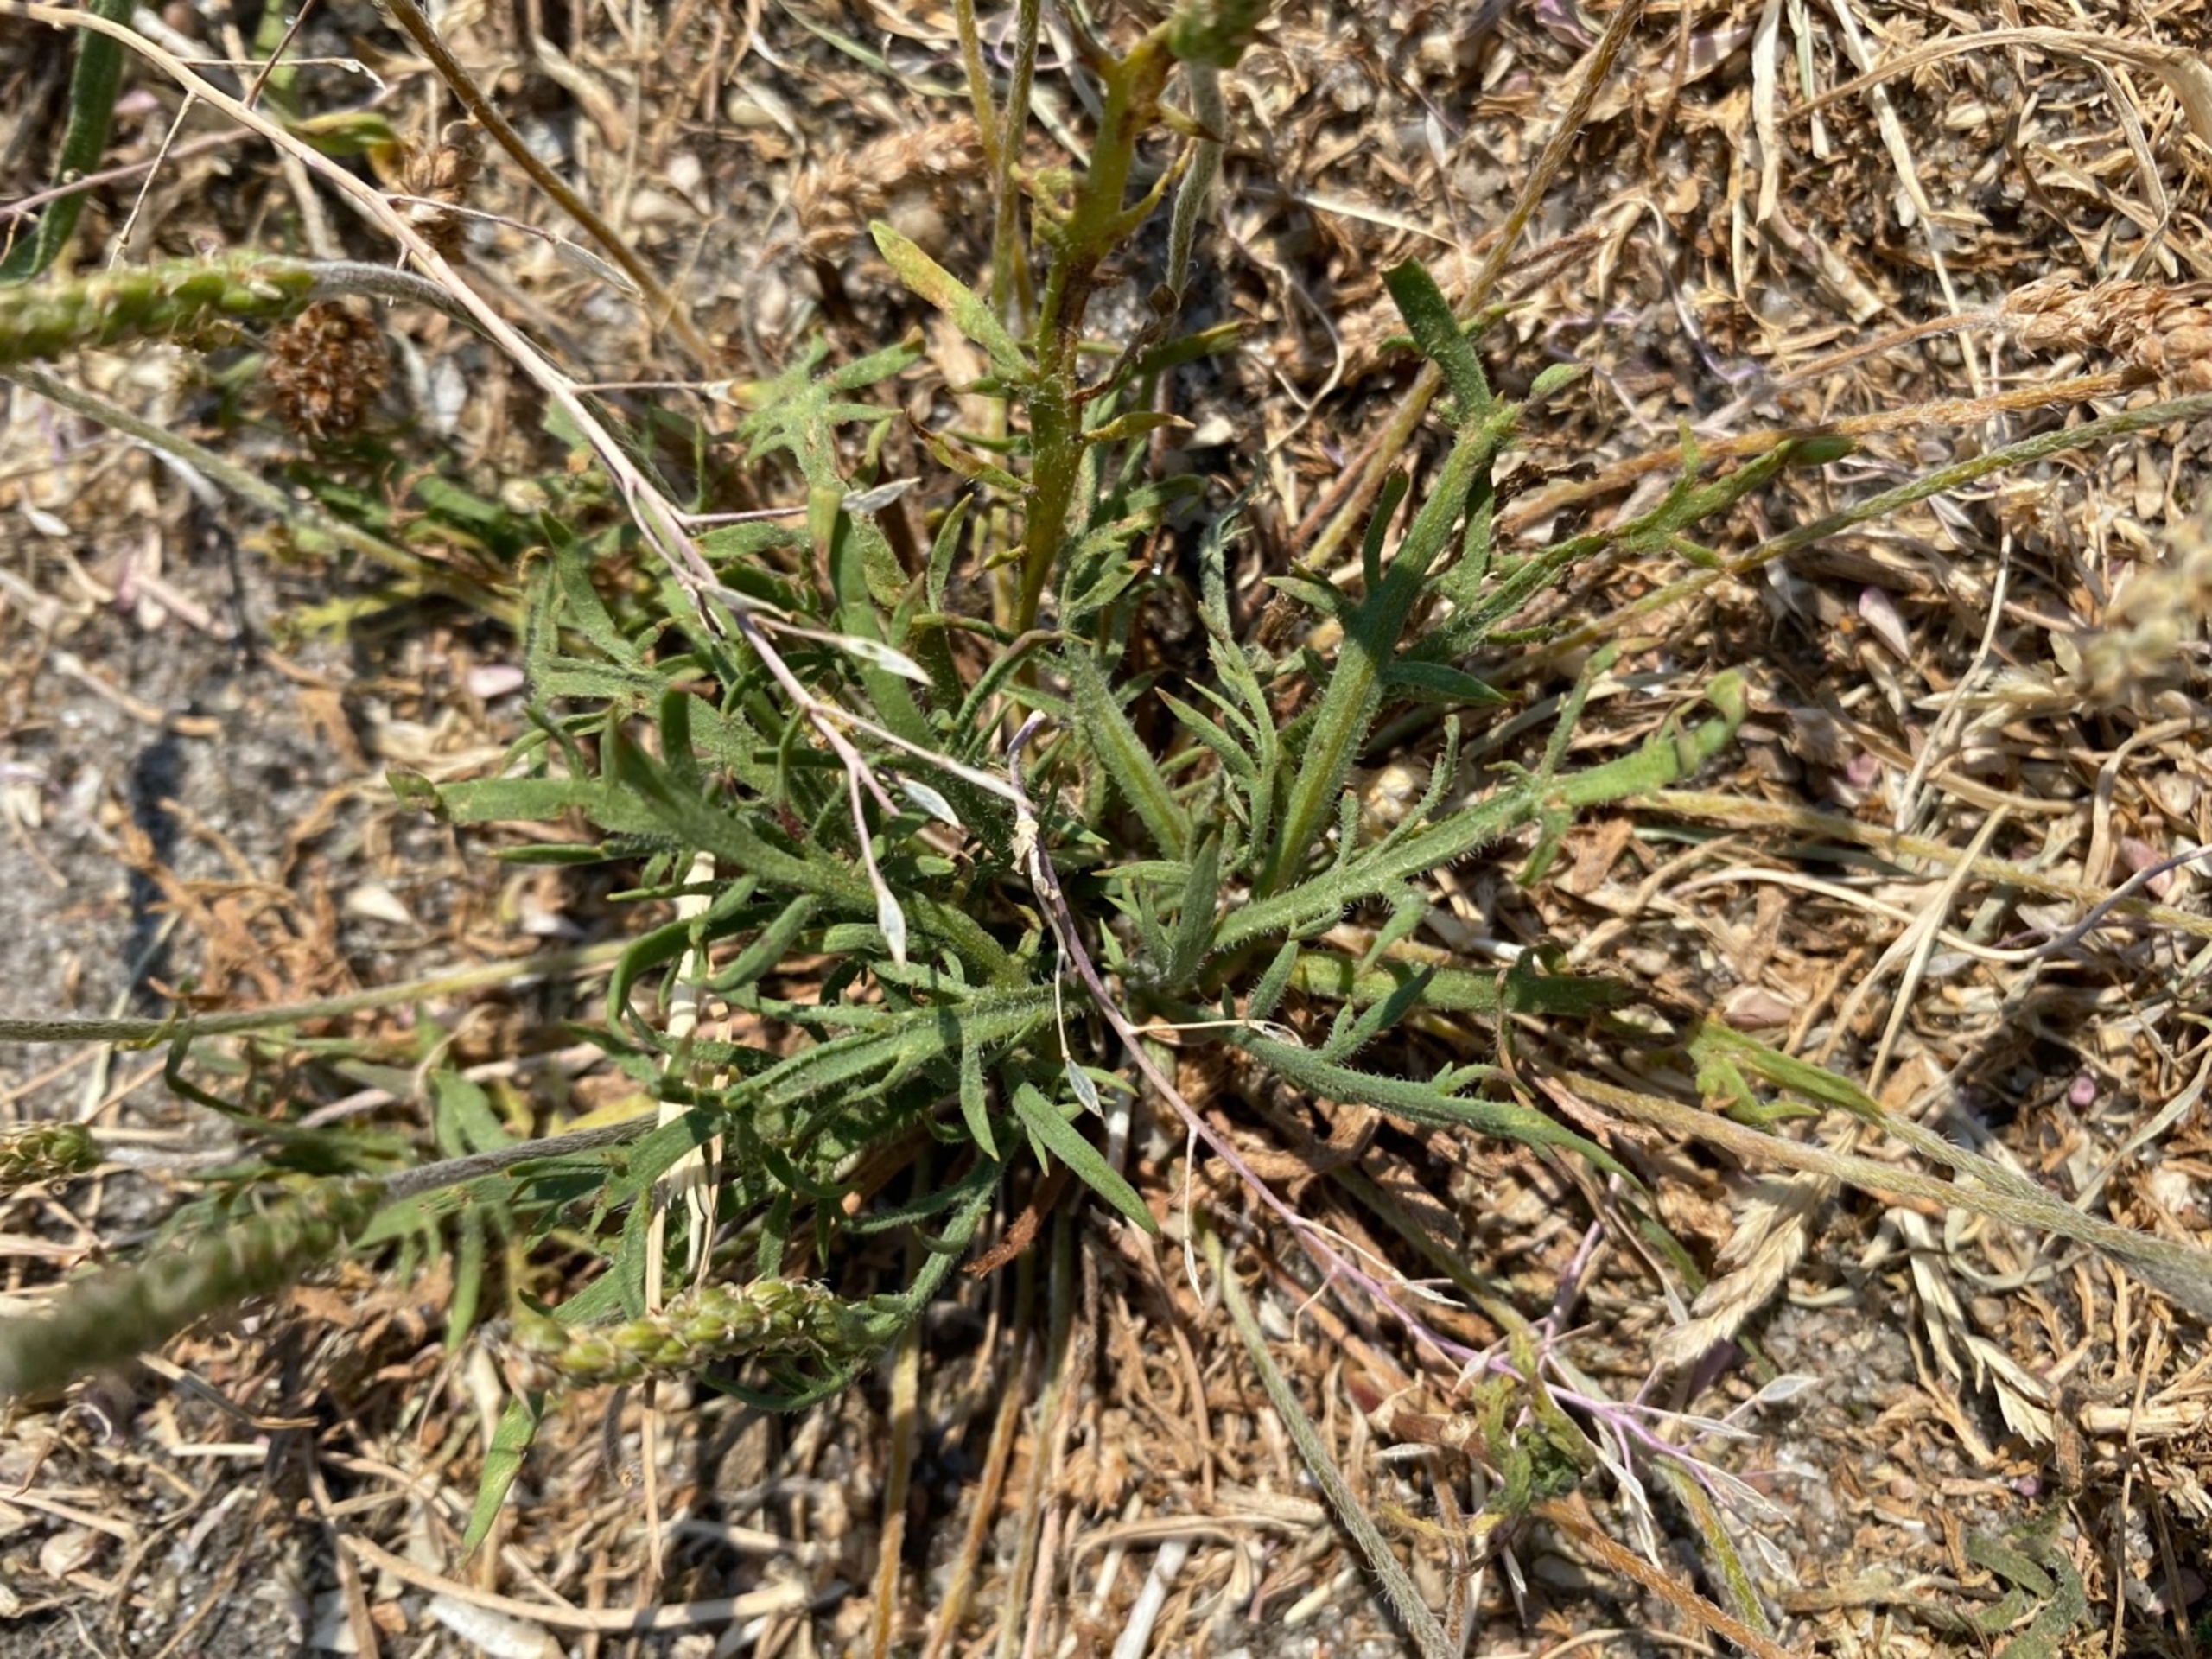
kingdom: Plantae
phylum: Tracheophyta
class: Magnoliopsida
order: Lamiales
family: Plantaginaceae
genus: Plantago
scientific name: Plantago coronopus
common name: Fliget vejbred
